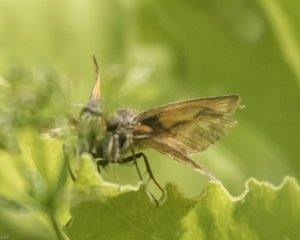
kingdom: Animalia
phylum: Arthropoda
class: Insecta
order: Lepidoptera
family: Hesperiidae
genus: Polites
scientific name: Polites
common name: Long Dash Skipper
